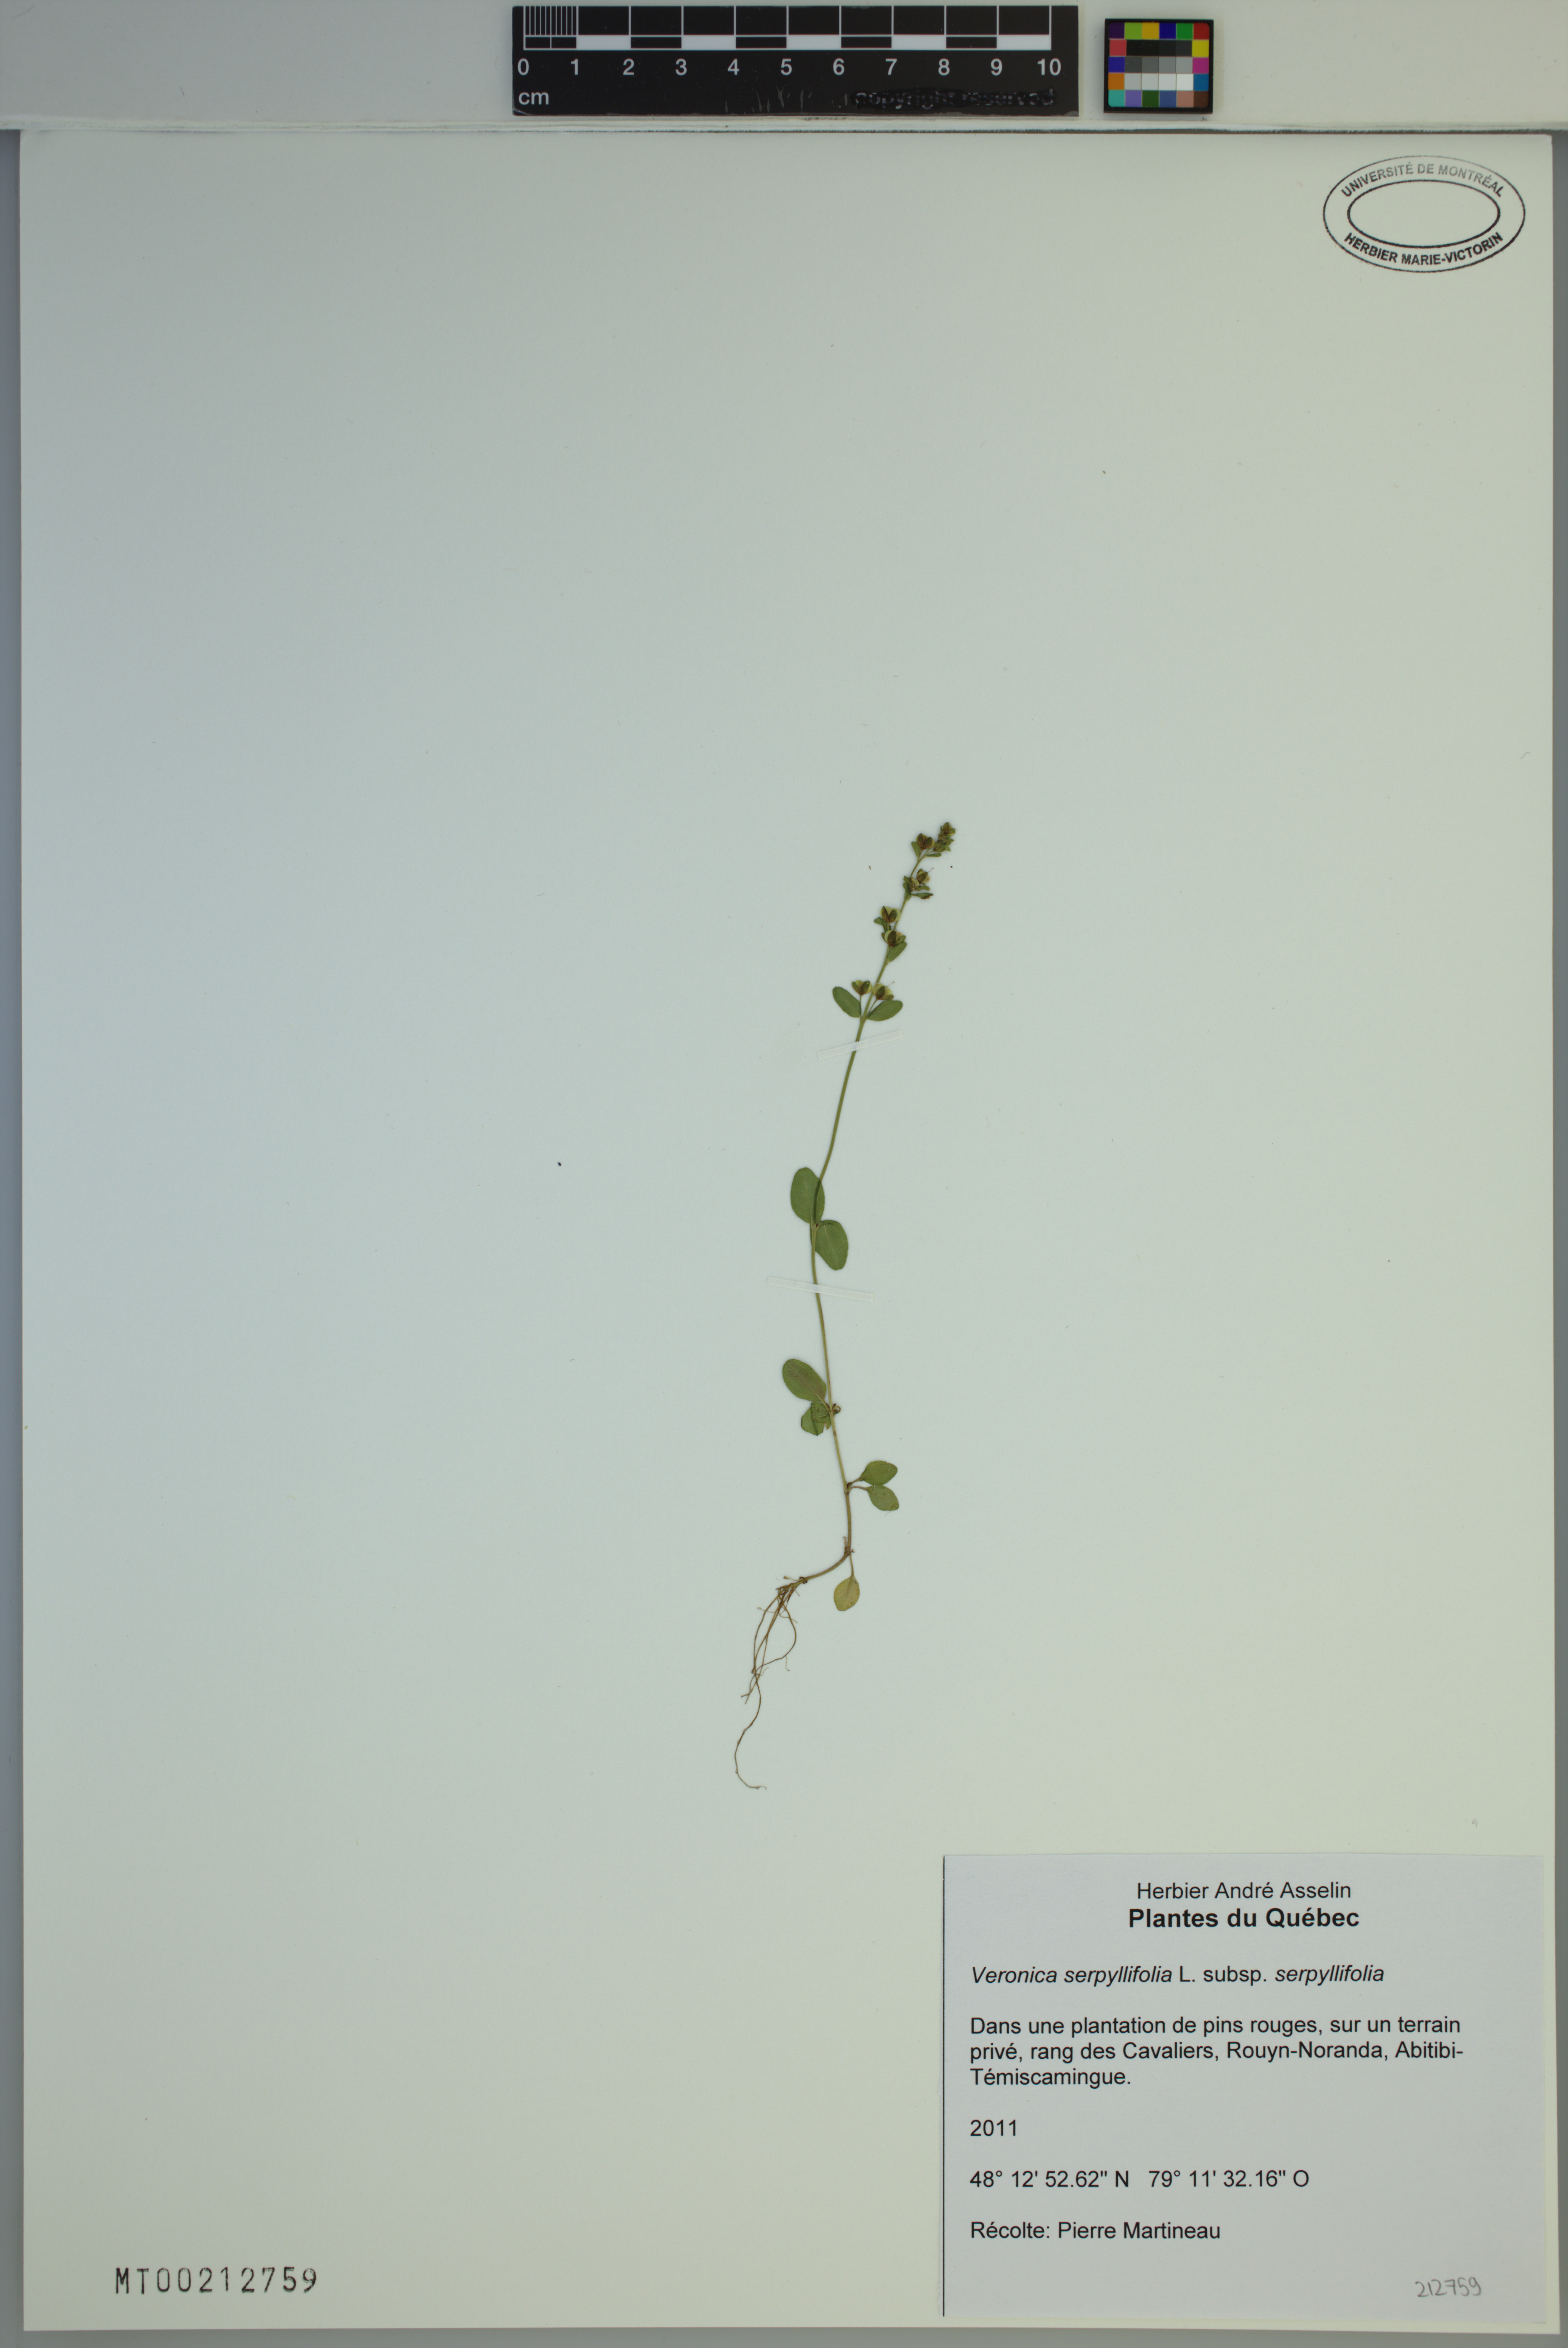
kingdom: Plantae
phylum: Tracheophyta
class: Magnoliopsida
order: Lamiales
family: Plantaginaceae
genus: Veronica
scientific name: Veronica serpyllifolia
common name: Thyme-leaved speedwell
